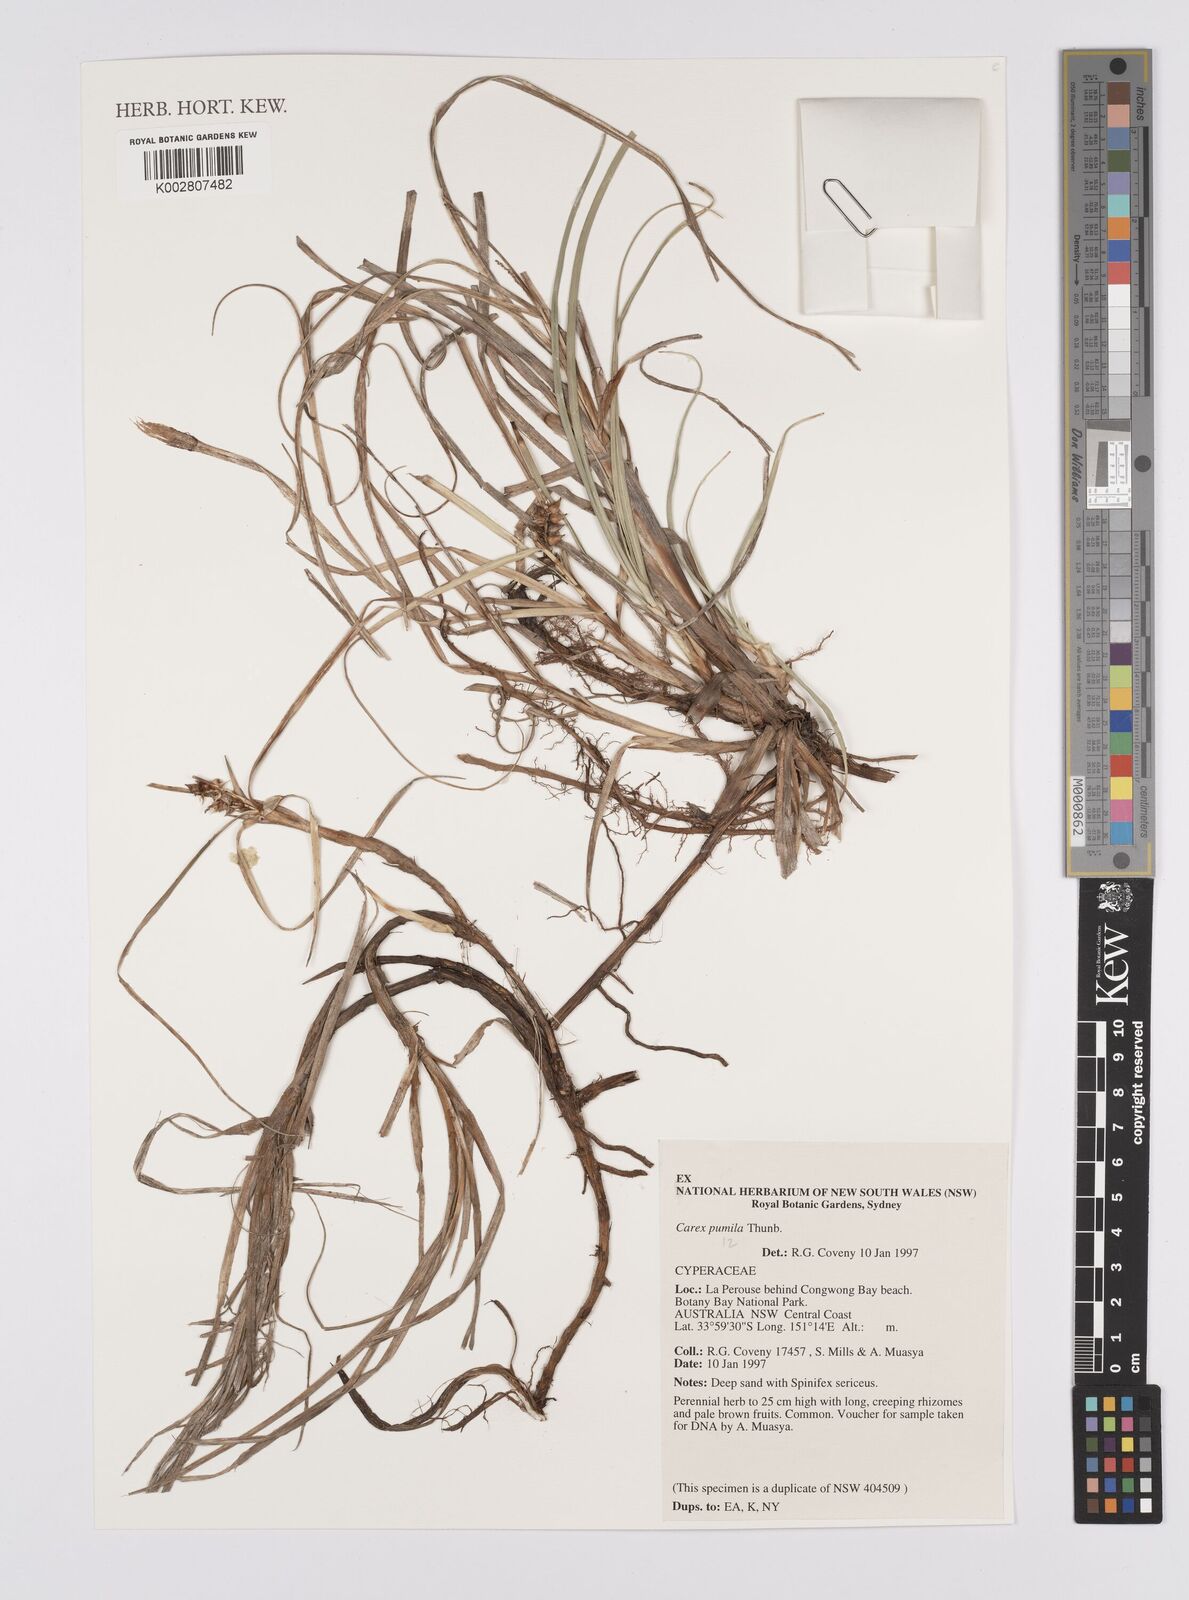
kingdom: Plantae
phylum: Tracheophyta
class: Liliopsida
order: Poales
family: Cyperaceae
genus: Carex
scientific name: Carex pumila
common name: Dwarf sedge
